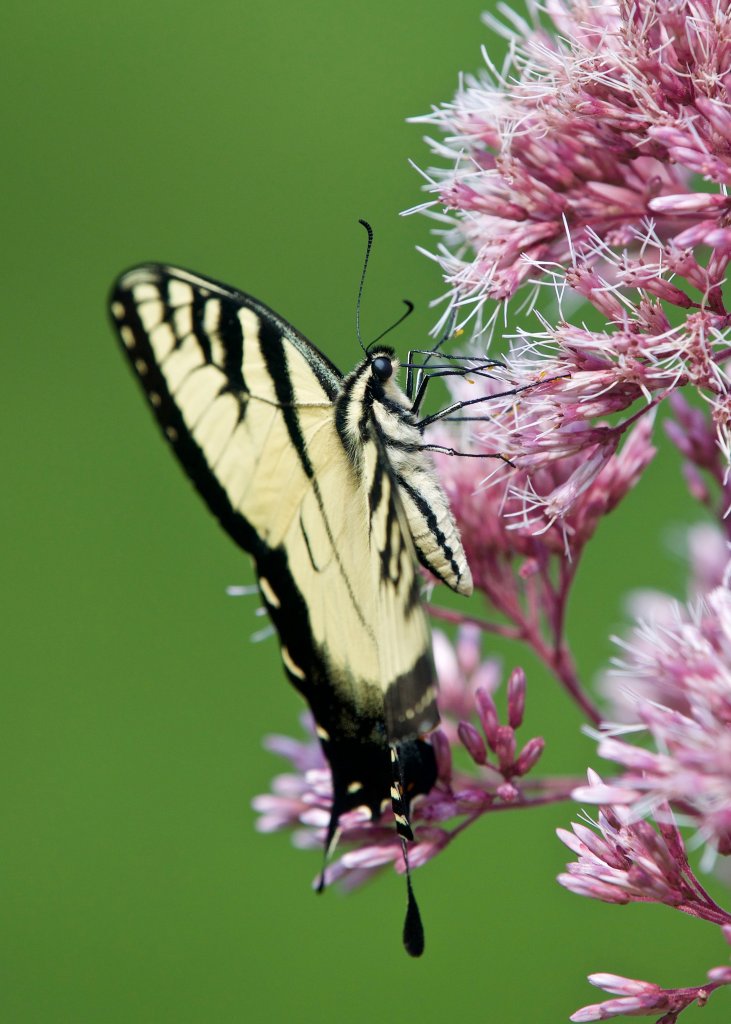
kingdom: Animalia
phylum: Arthropoda
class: Insecta
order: Lepidoptera
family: Papilionidae
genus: Pterourus
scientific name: Pterourus glaucus
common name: Eastern Tiger Swallowtail
